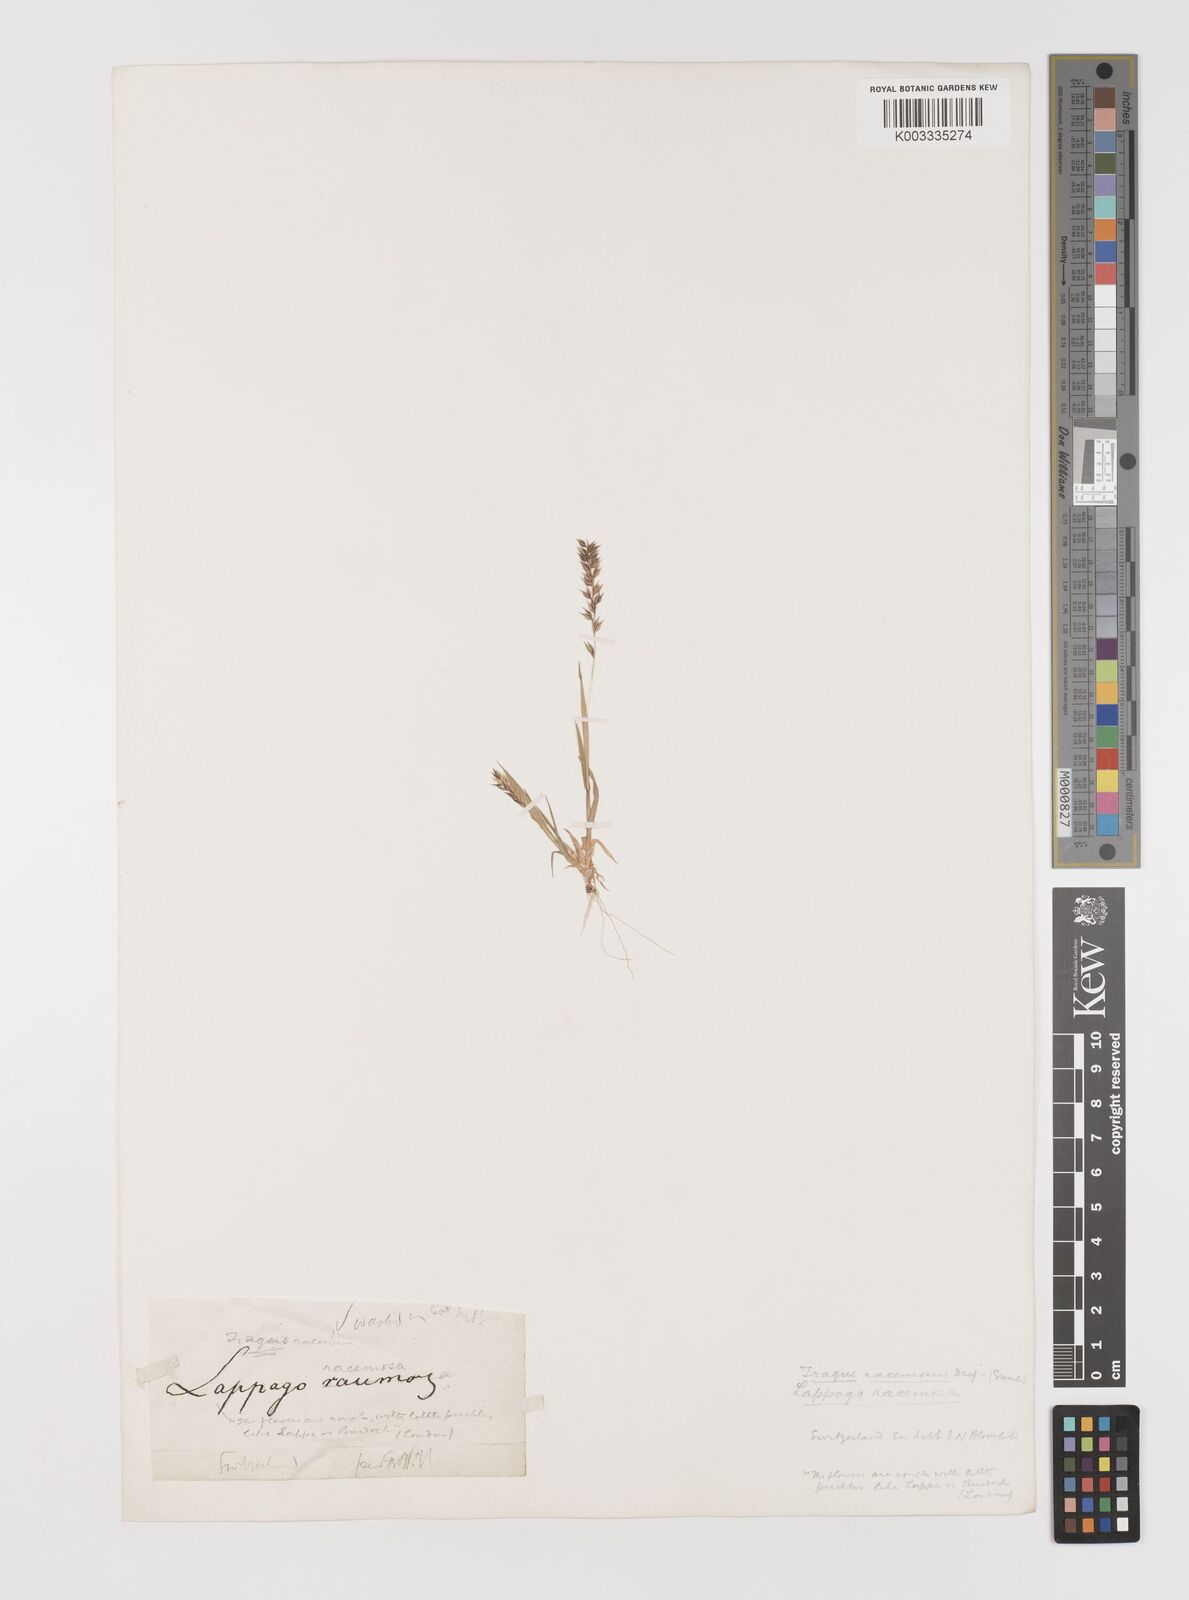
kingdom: Plantae
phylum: Tracheophyta
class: Liliopsida
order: Poales
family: Poaceae
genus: Tragus
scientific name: Tragus racemosus
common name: European bur-grass
